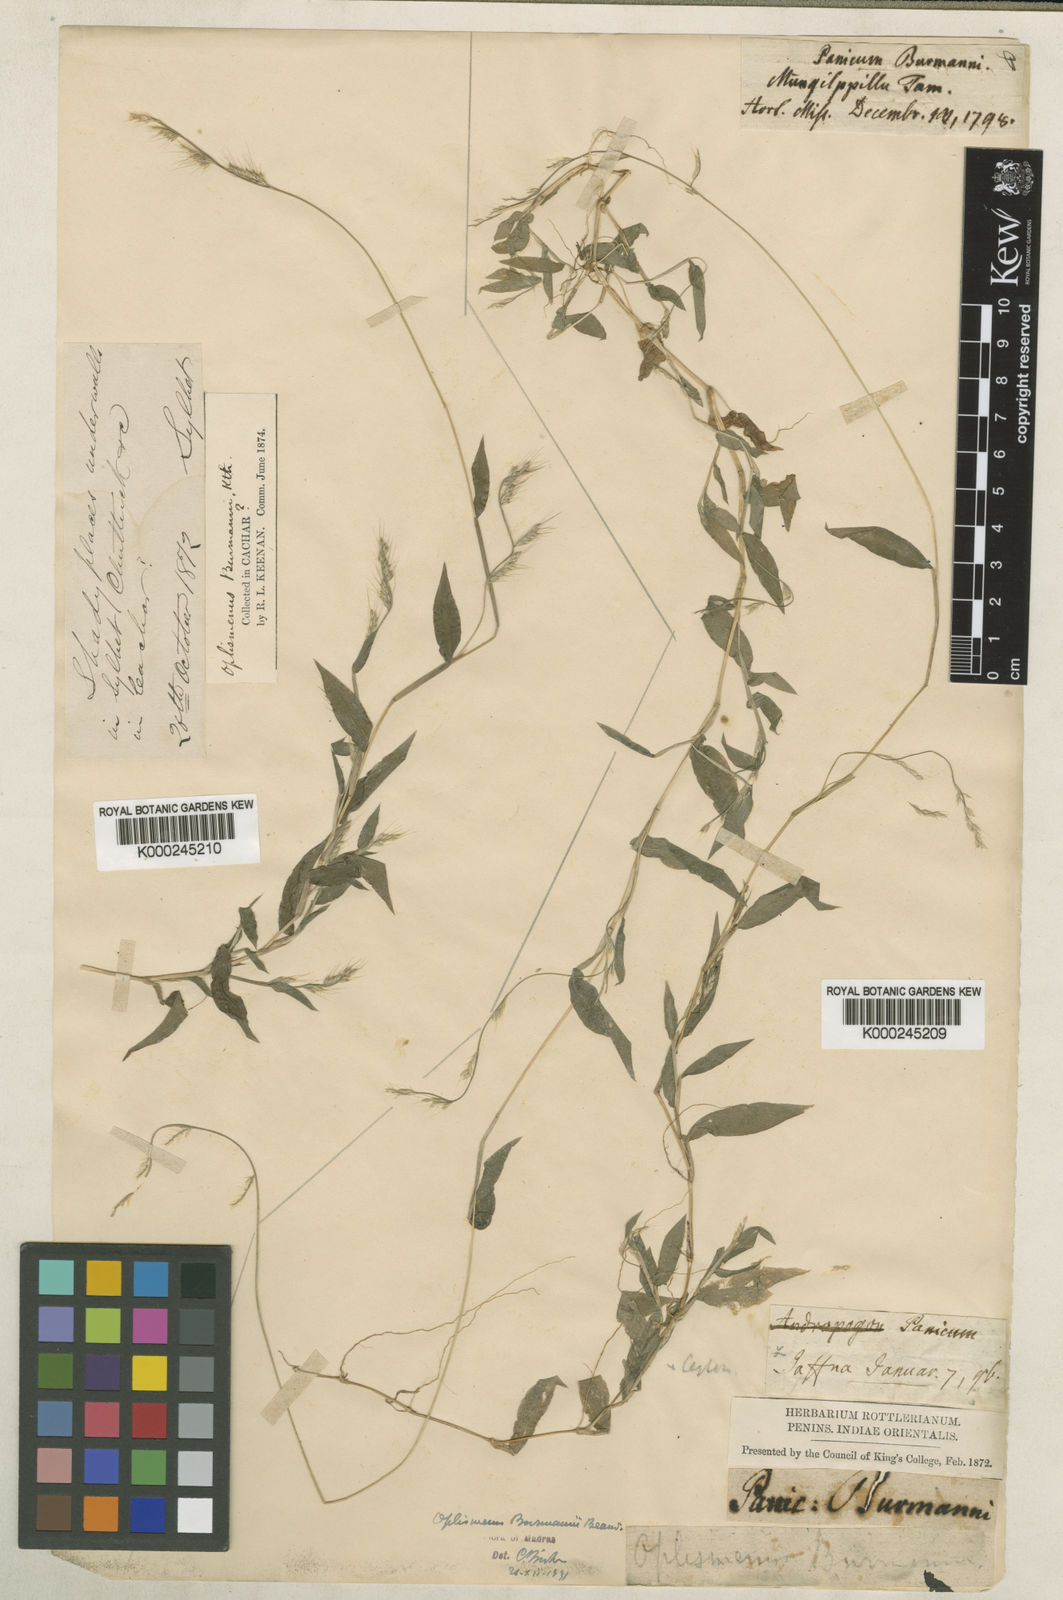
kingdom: Plantae
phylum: Tracheophyta
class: Liliopsida
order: Poales
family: Poaceae
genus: Oplismenus
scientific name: Oplismenus burmanni
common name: Burmann's basketgrass
